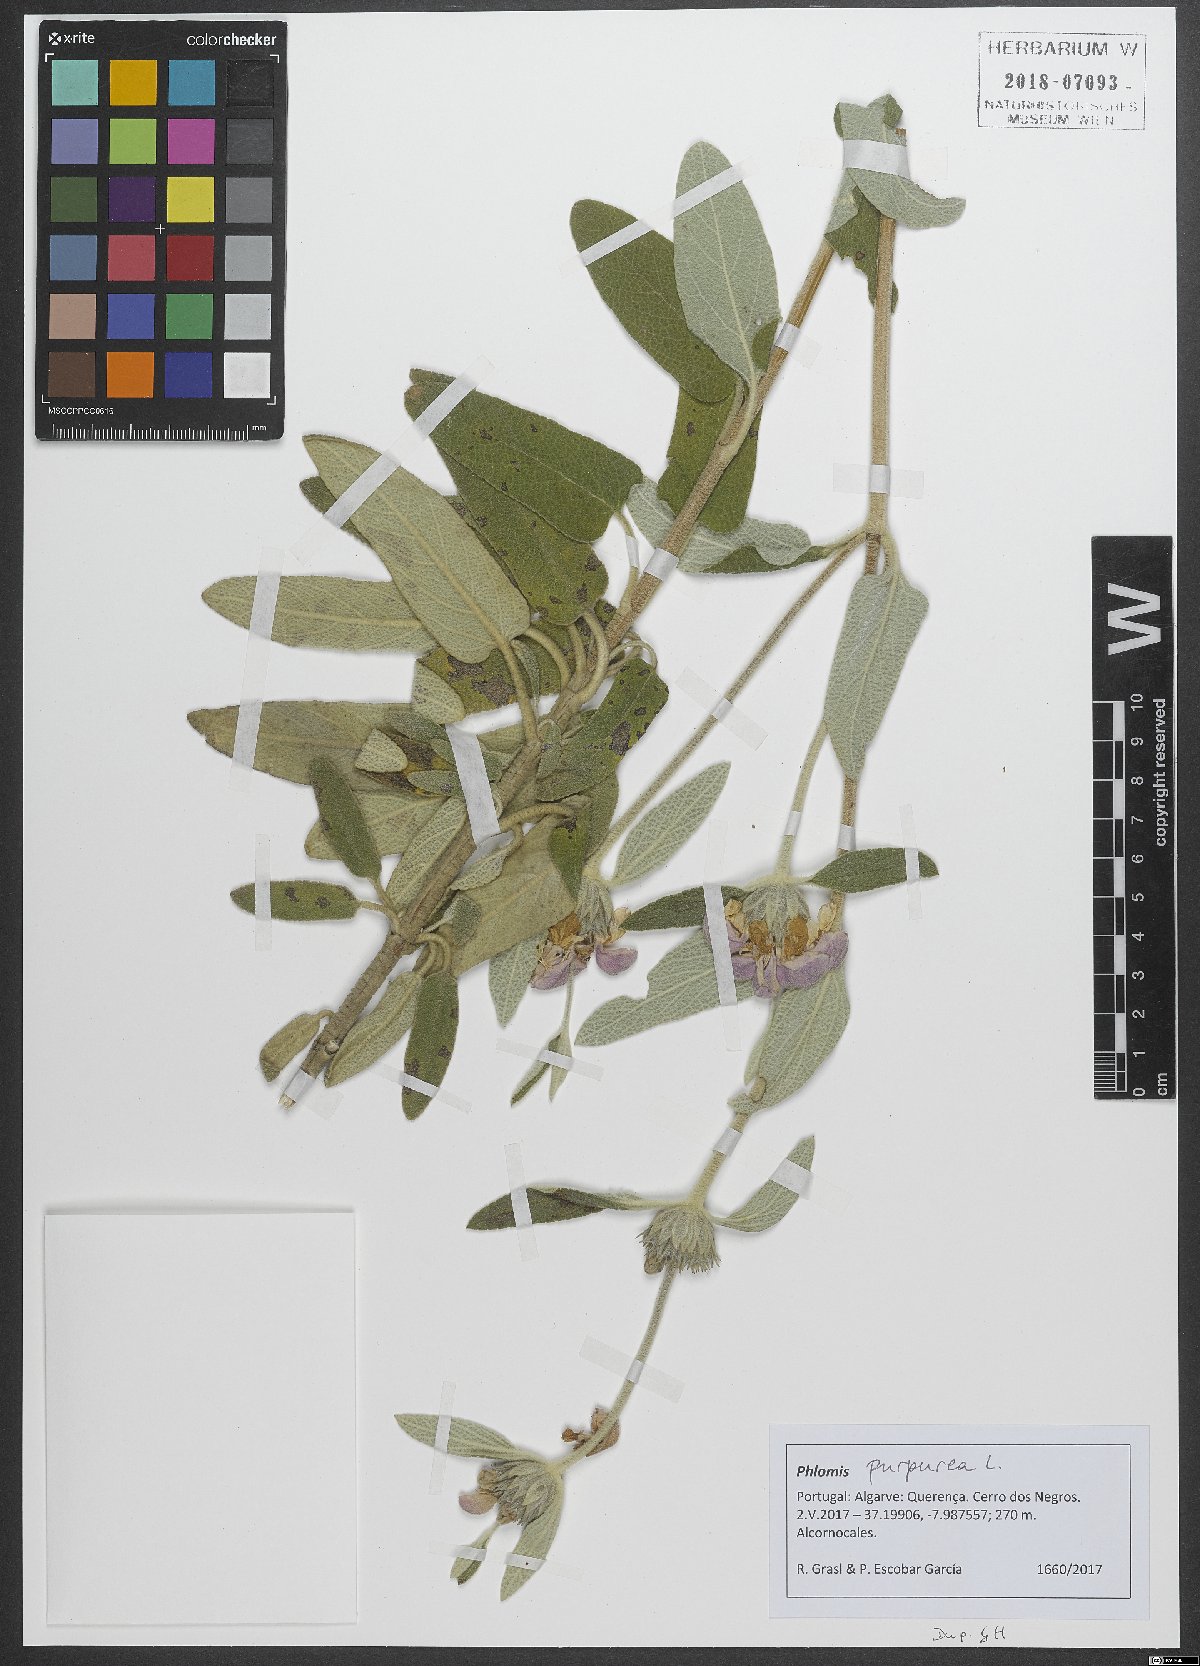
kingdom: Plantae
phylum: Tracheophyta
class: Magnoliopsida
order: Lamiales
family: Lamiaceae
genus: Phlomis
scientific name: Phlomis purpurea
